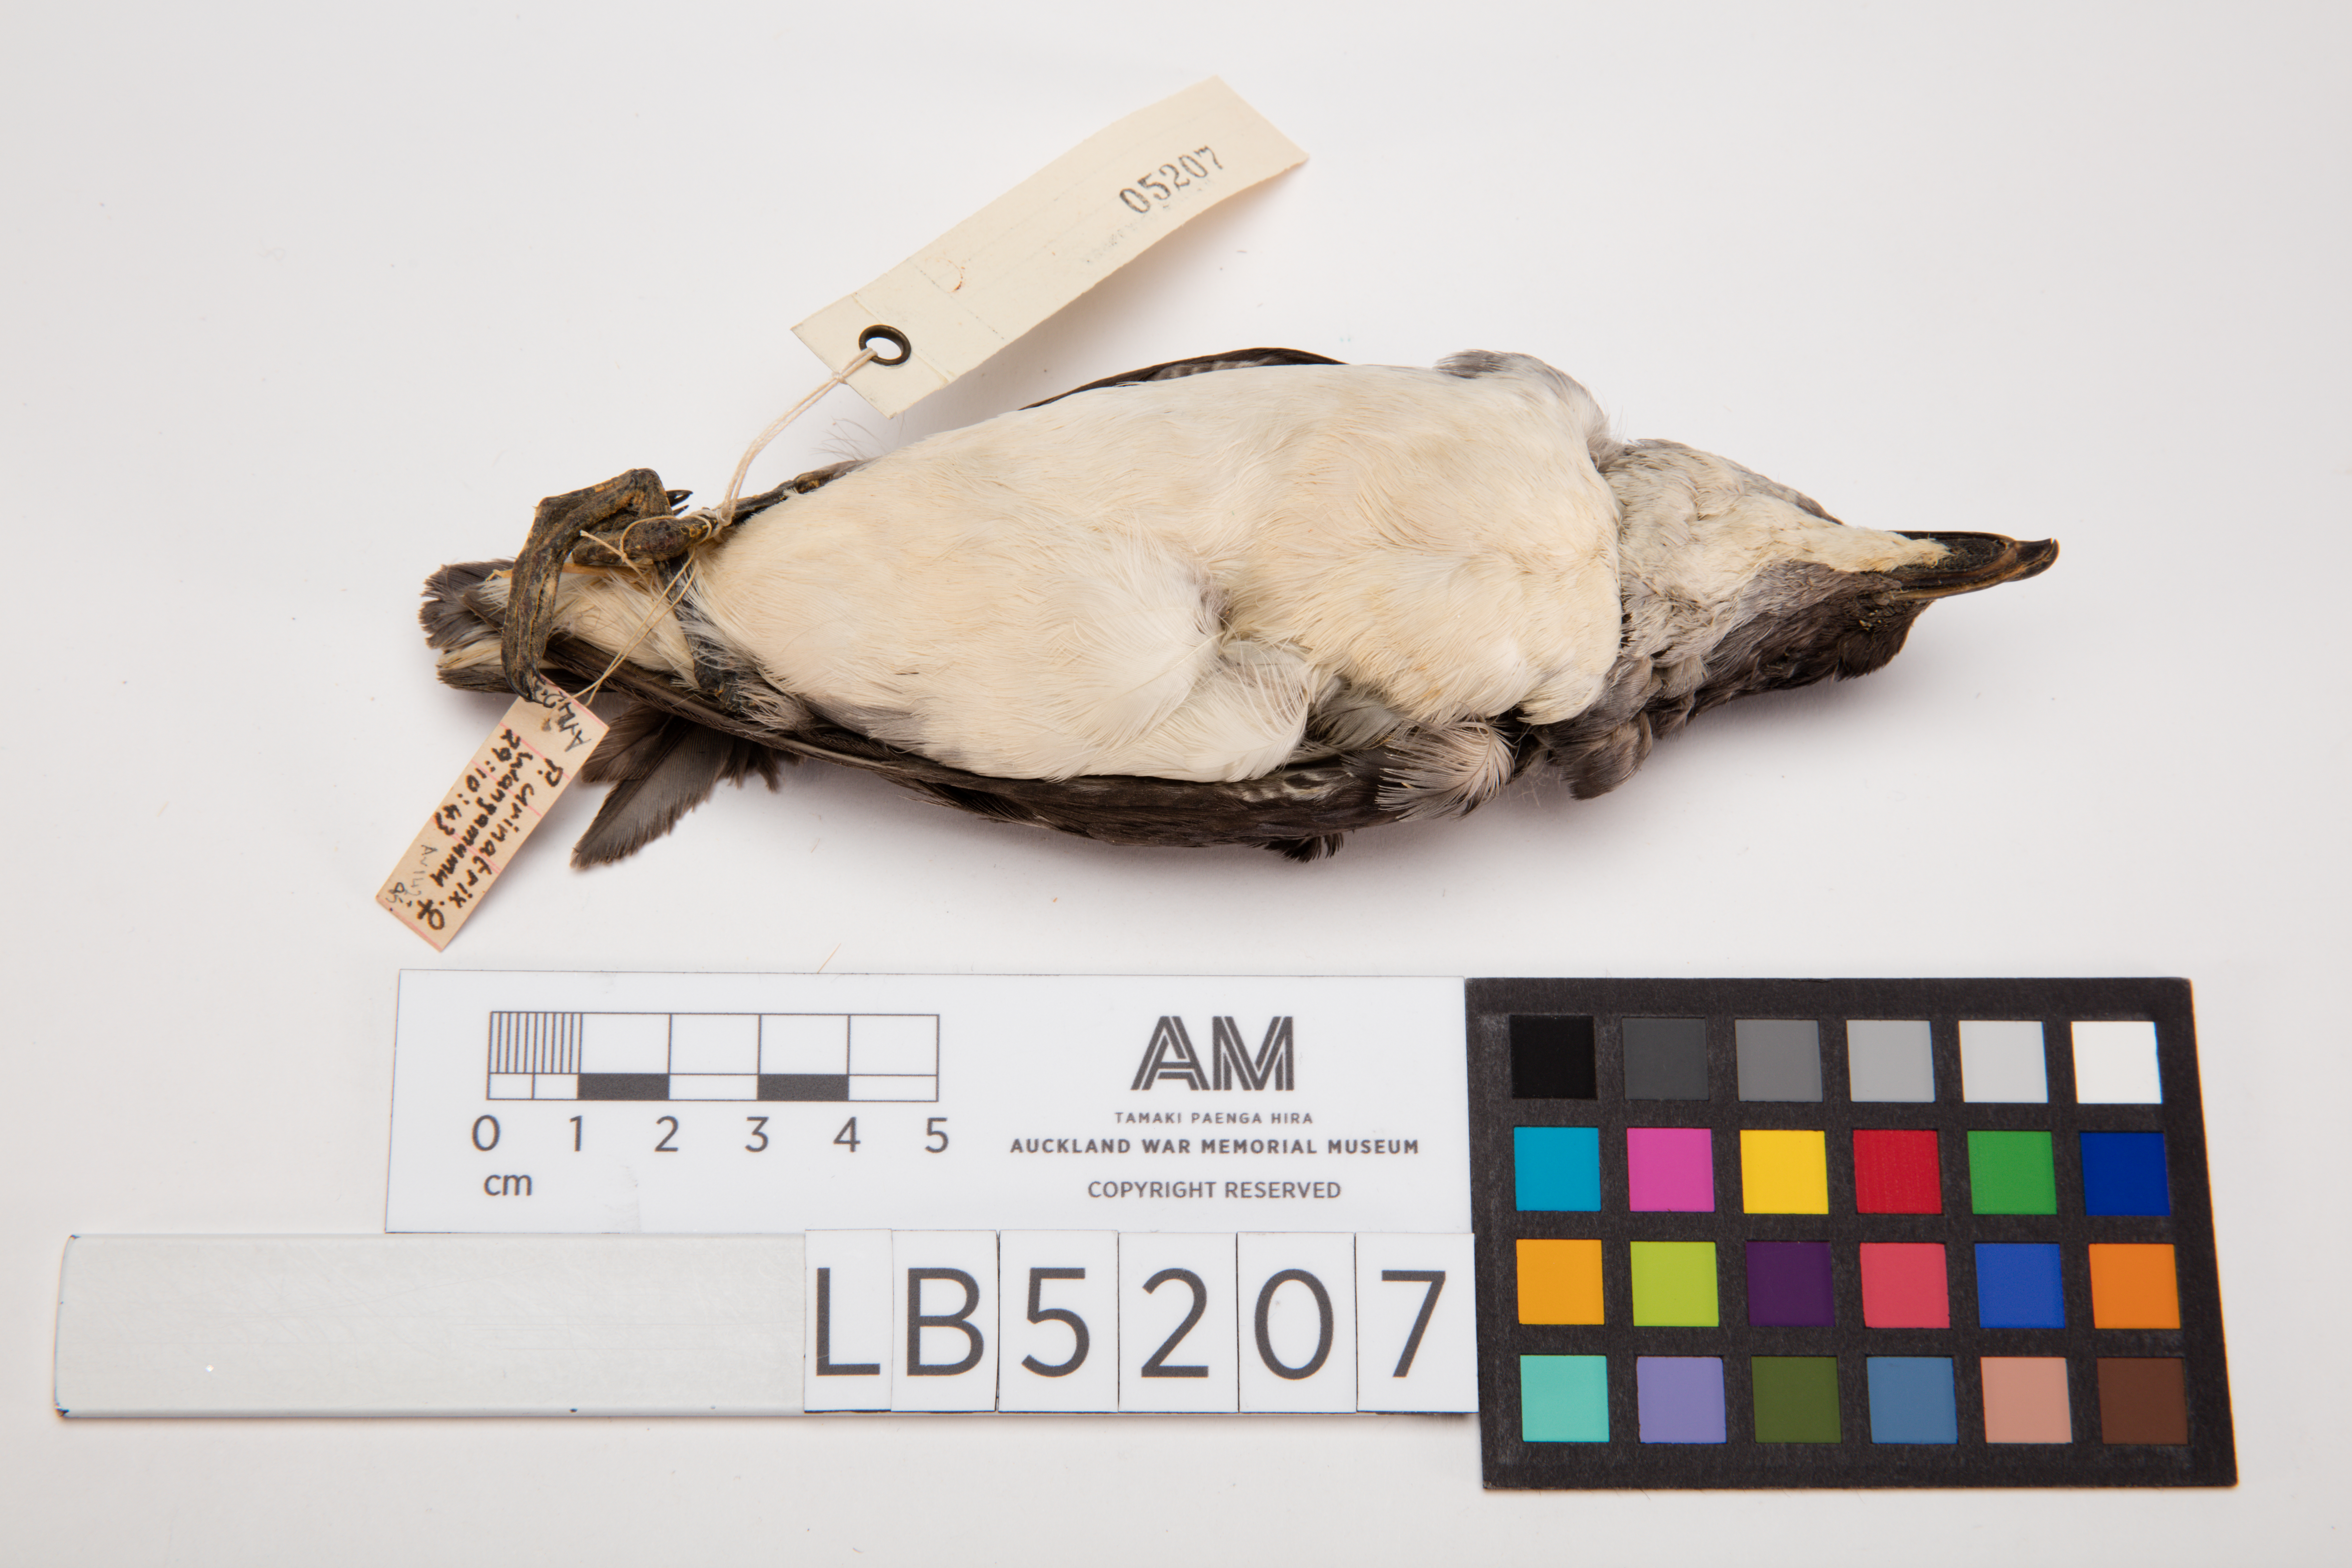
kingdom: Animalia
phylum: Chordata
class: Aves
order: Procellariiformes
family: Pelecanoididae
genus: Pelecanoides
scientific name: Pelecanoides urinatrix
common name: Common diving-petrel
